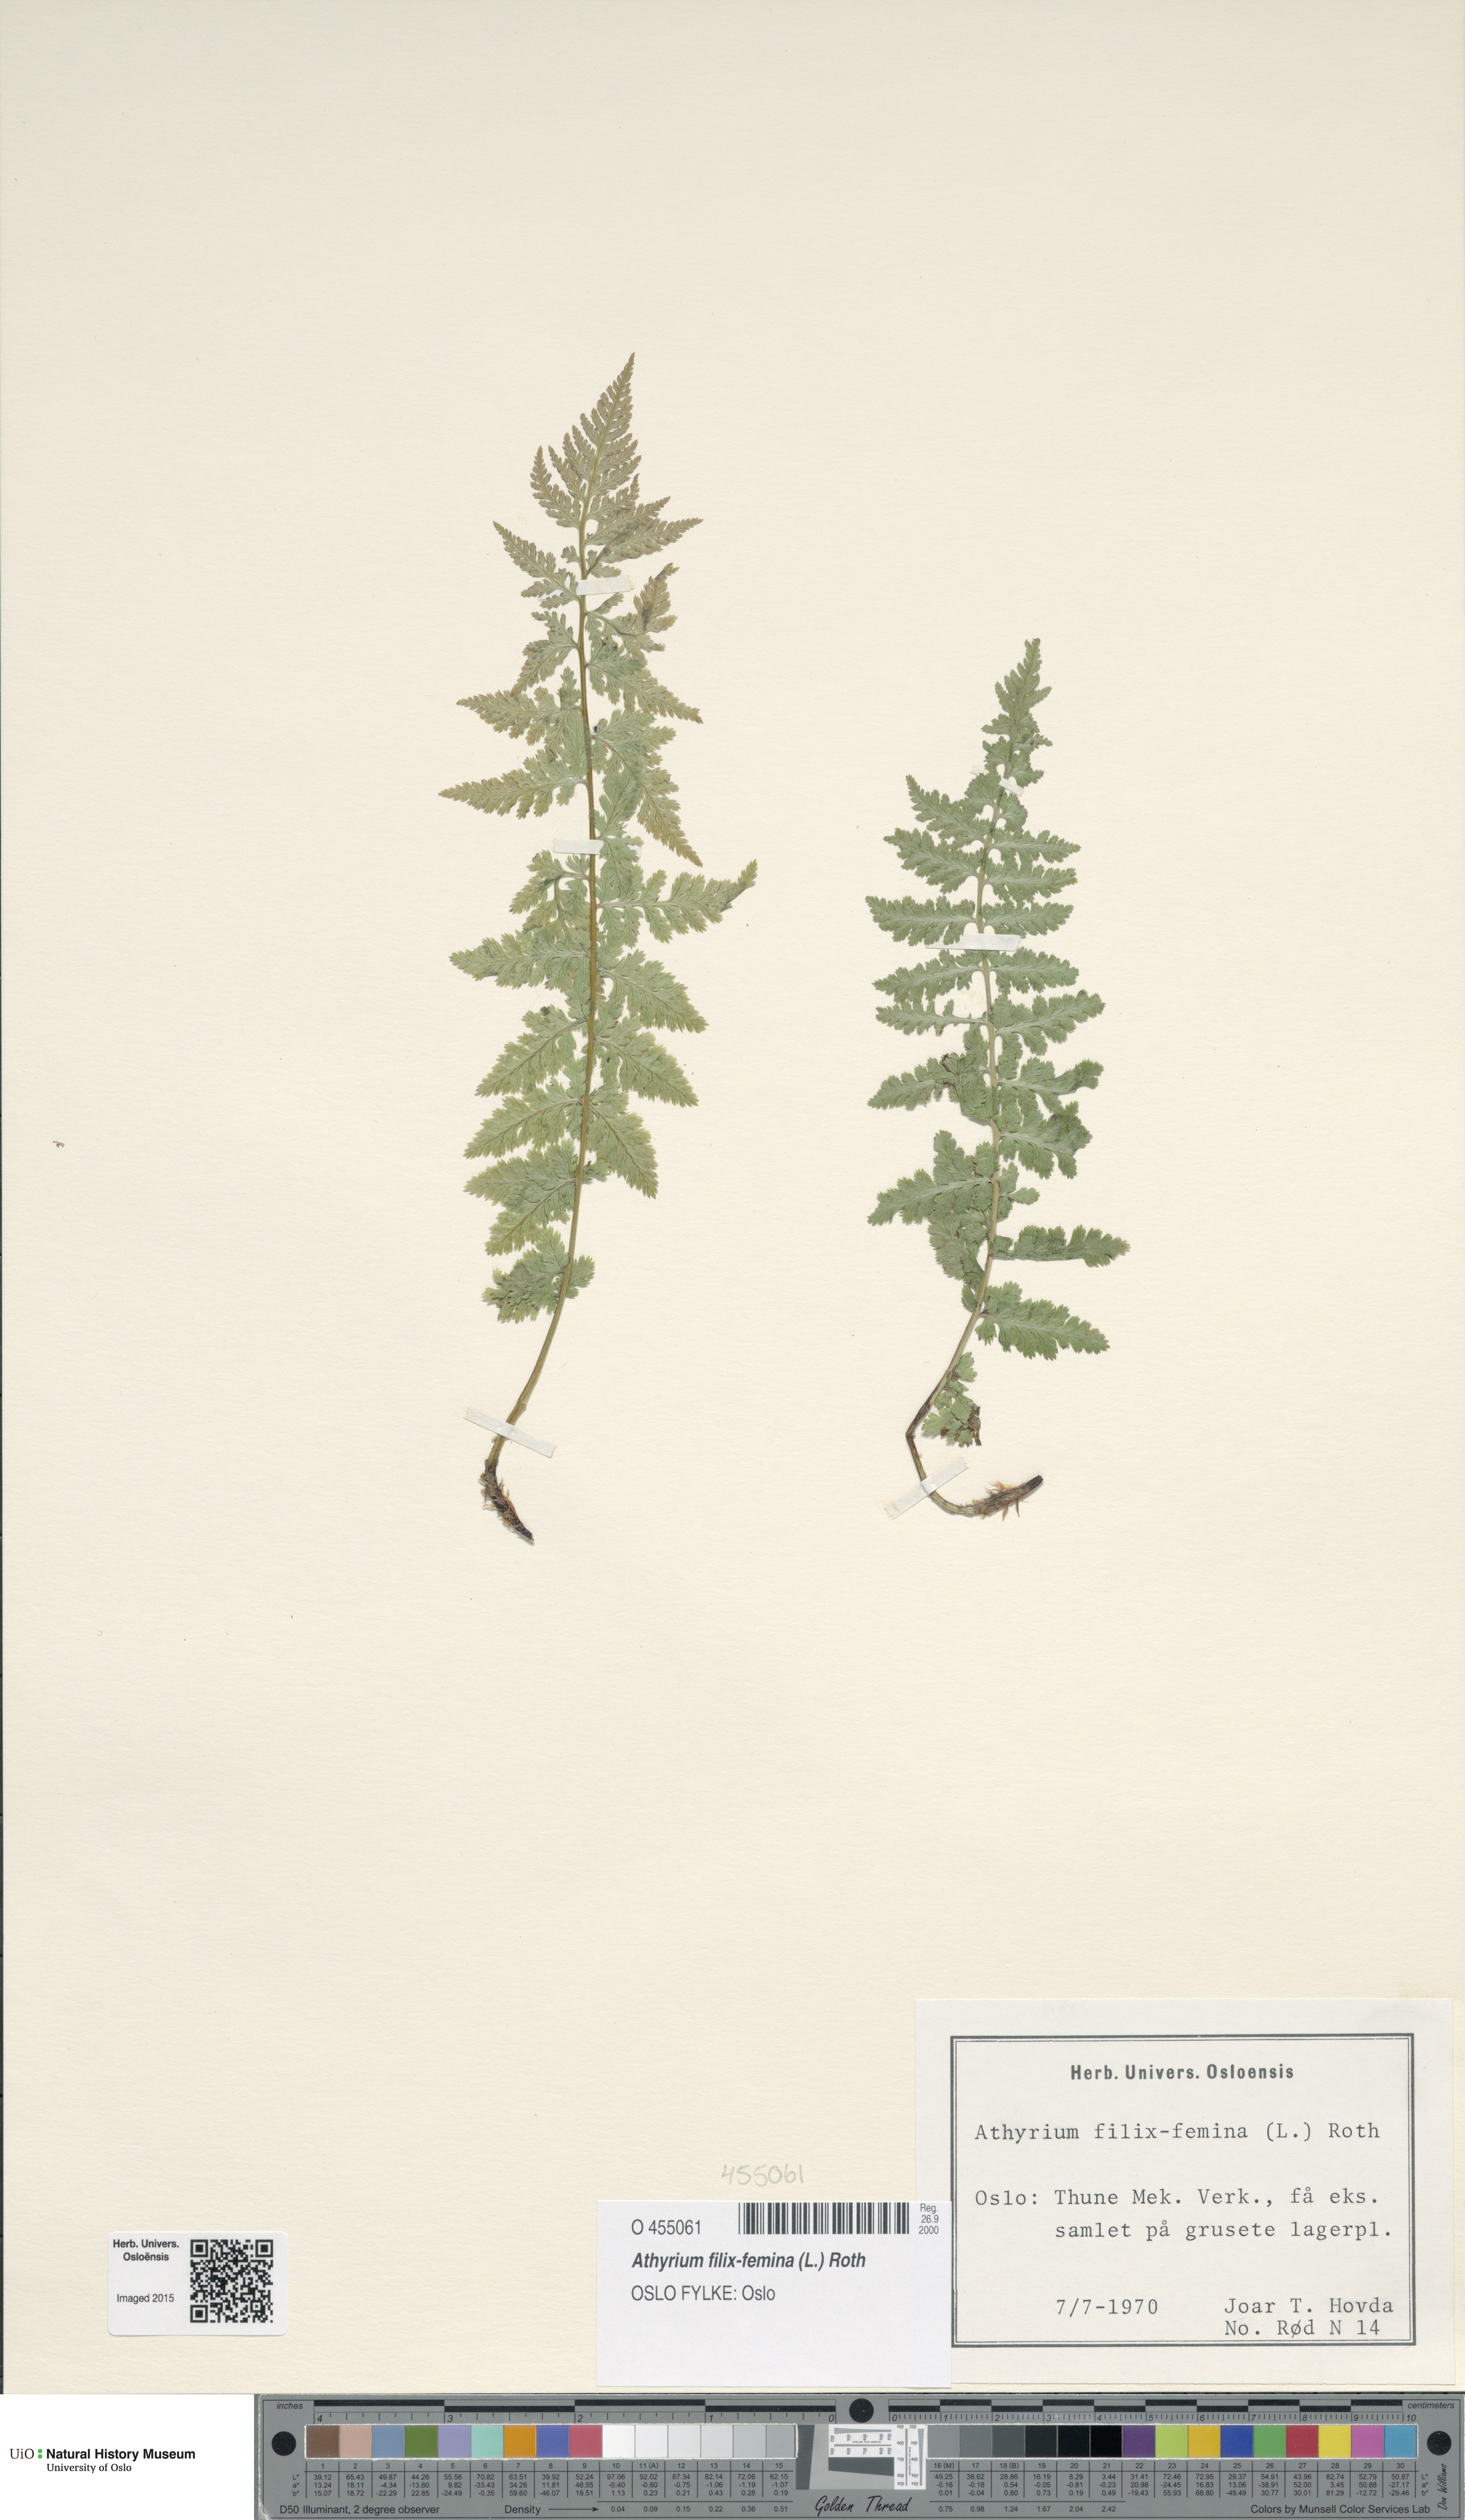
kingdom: Plantae
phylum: Tracheophyta
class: Polypodiopsida
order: Polypodiales
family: Athyriaceae
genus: Athyrium
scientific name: Athyrium filix-femina
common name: Lady fern
